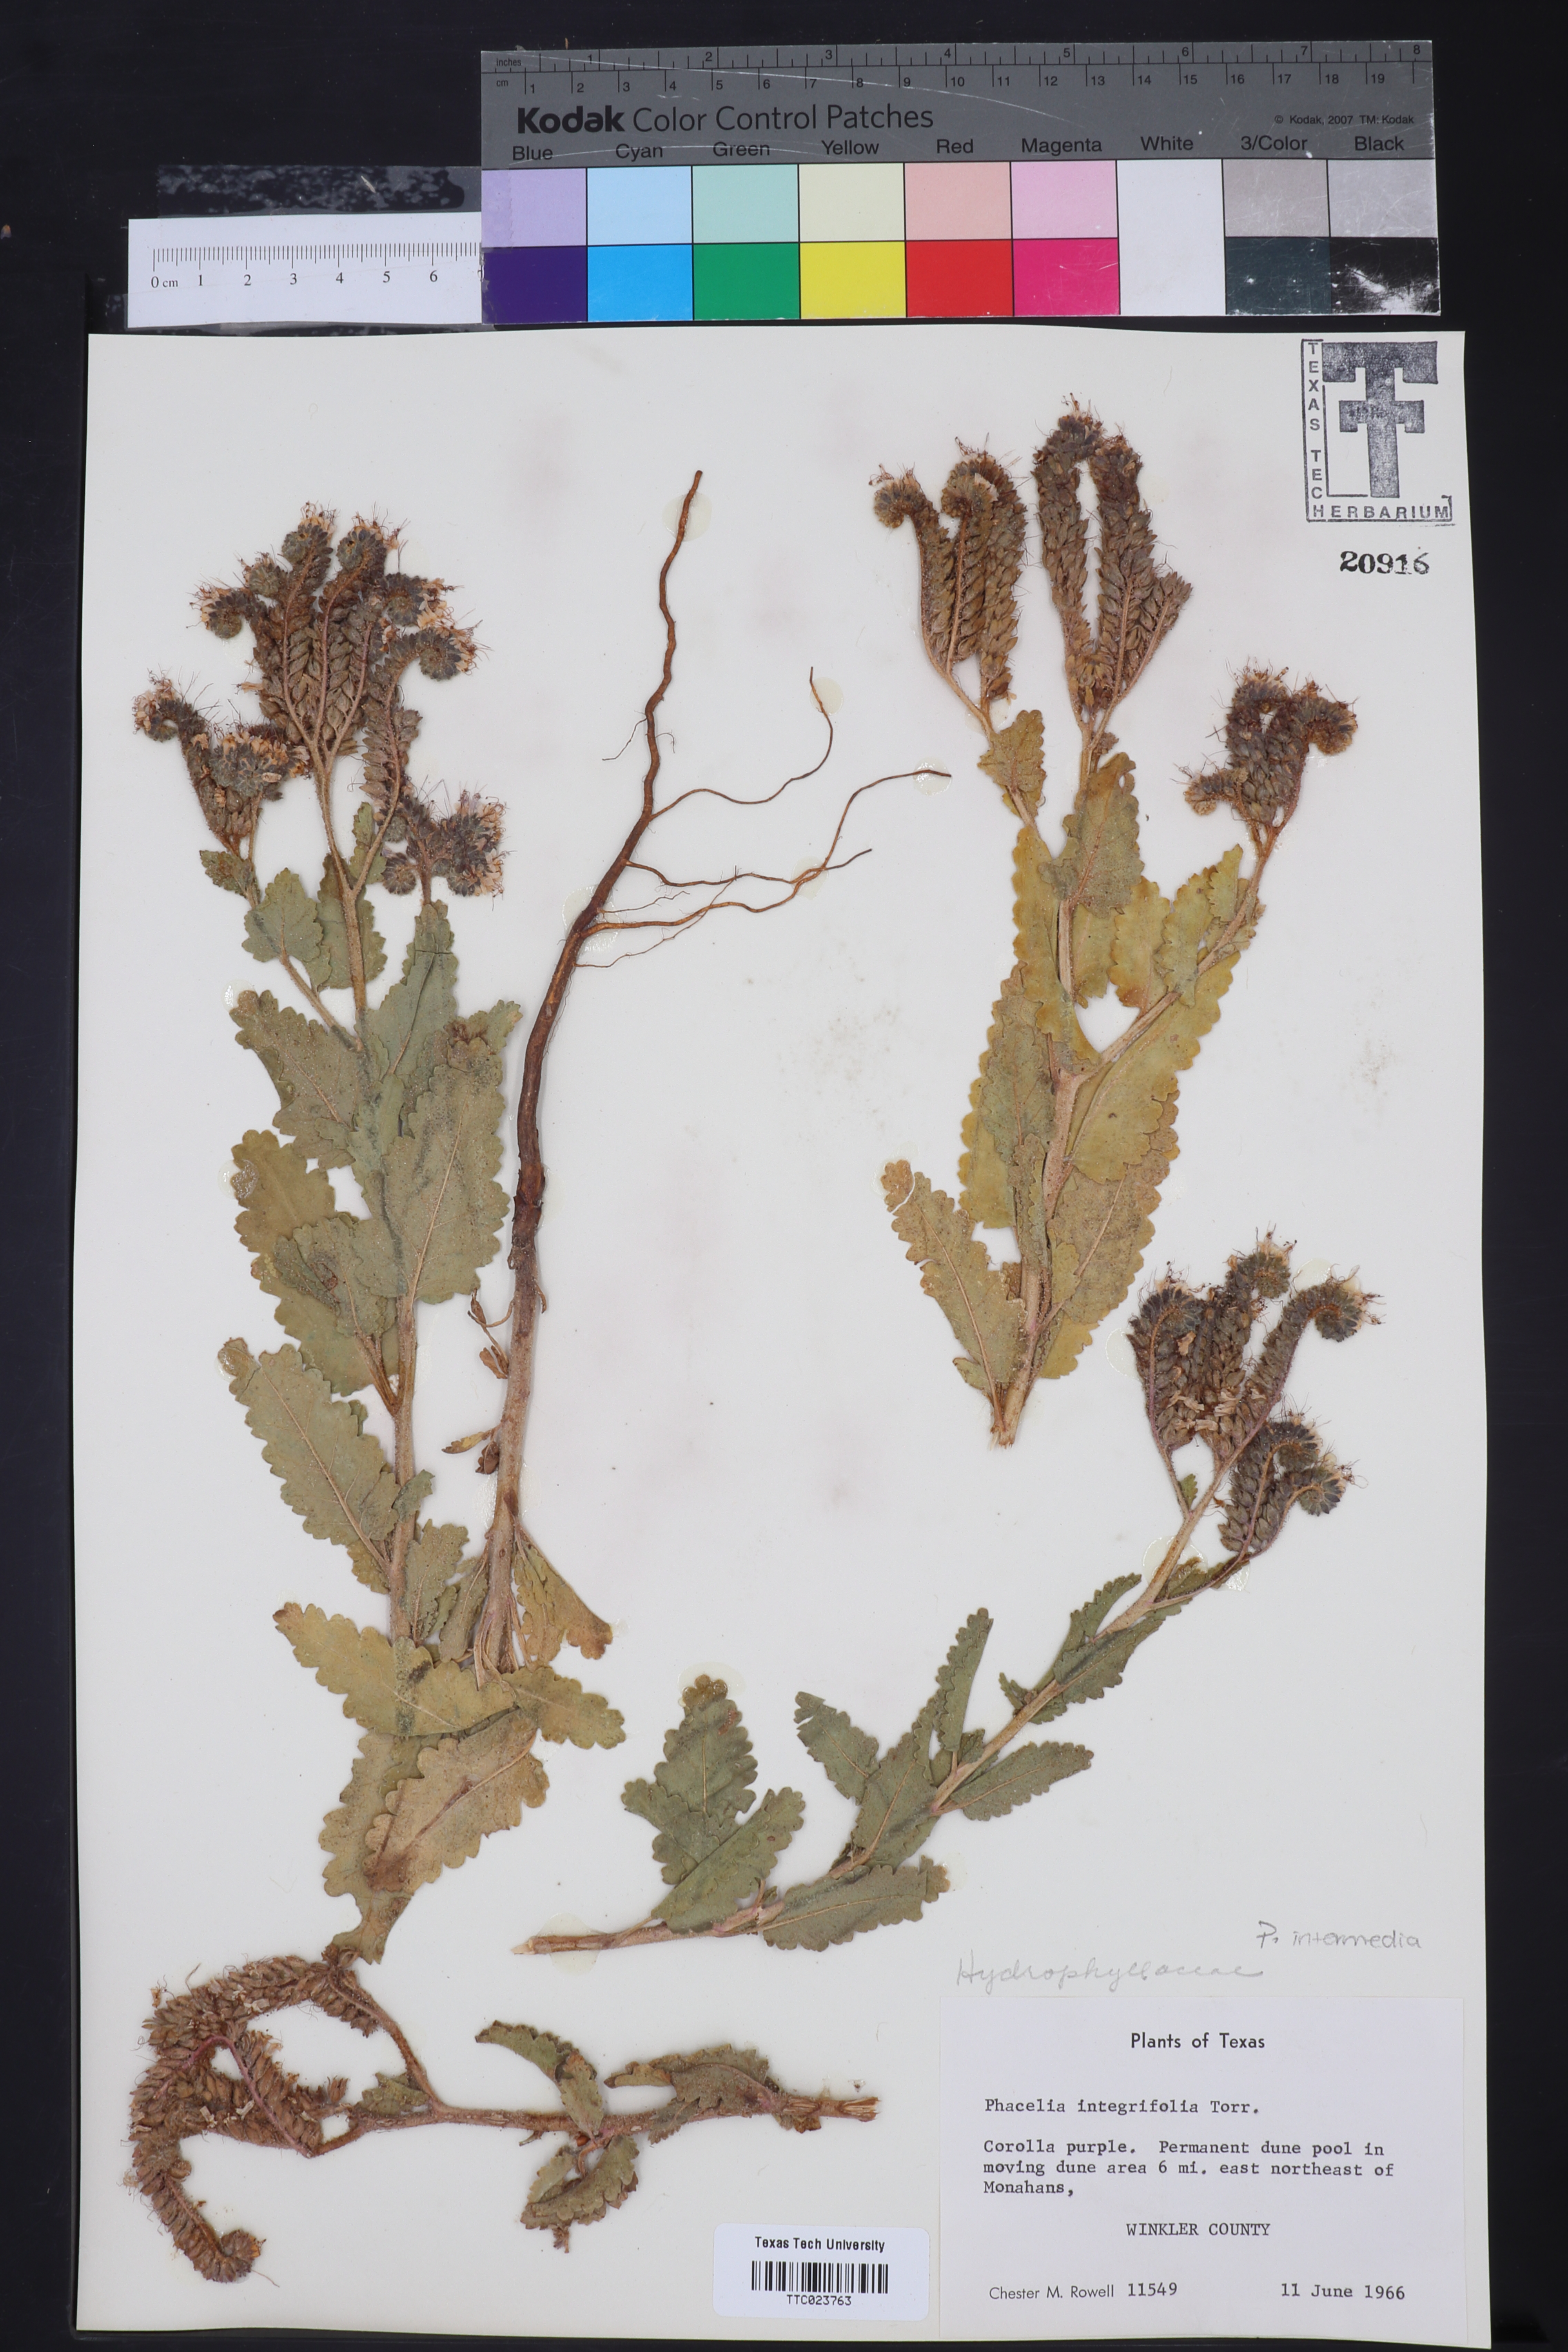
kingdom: Plantae
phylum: Tracheophyta
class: Magnoliopsida
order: Boraginales
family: Hydrophyllaceae
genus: Phacelia
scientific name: Phacelia integrifolia
